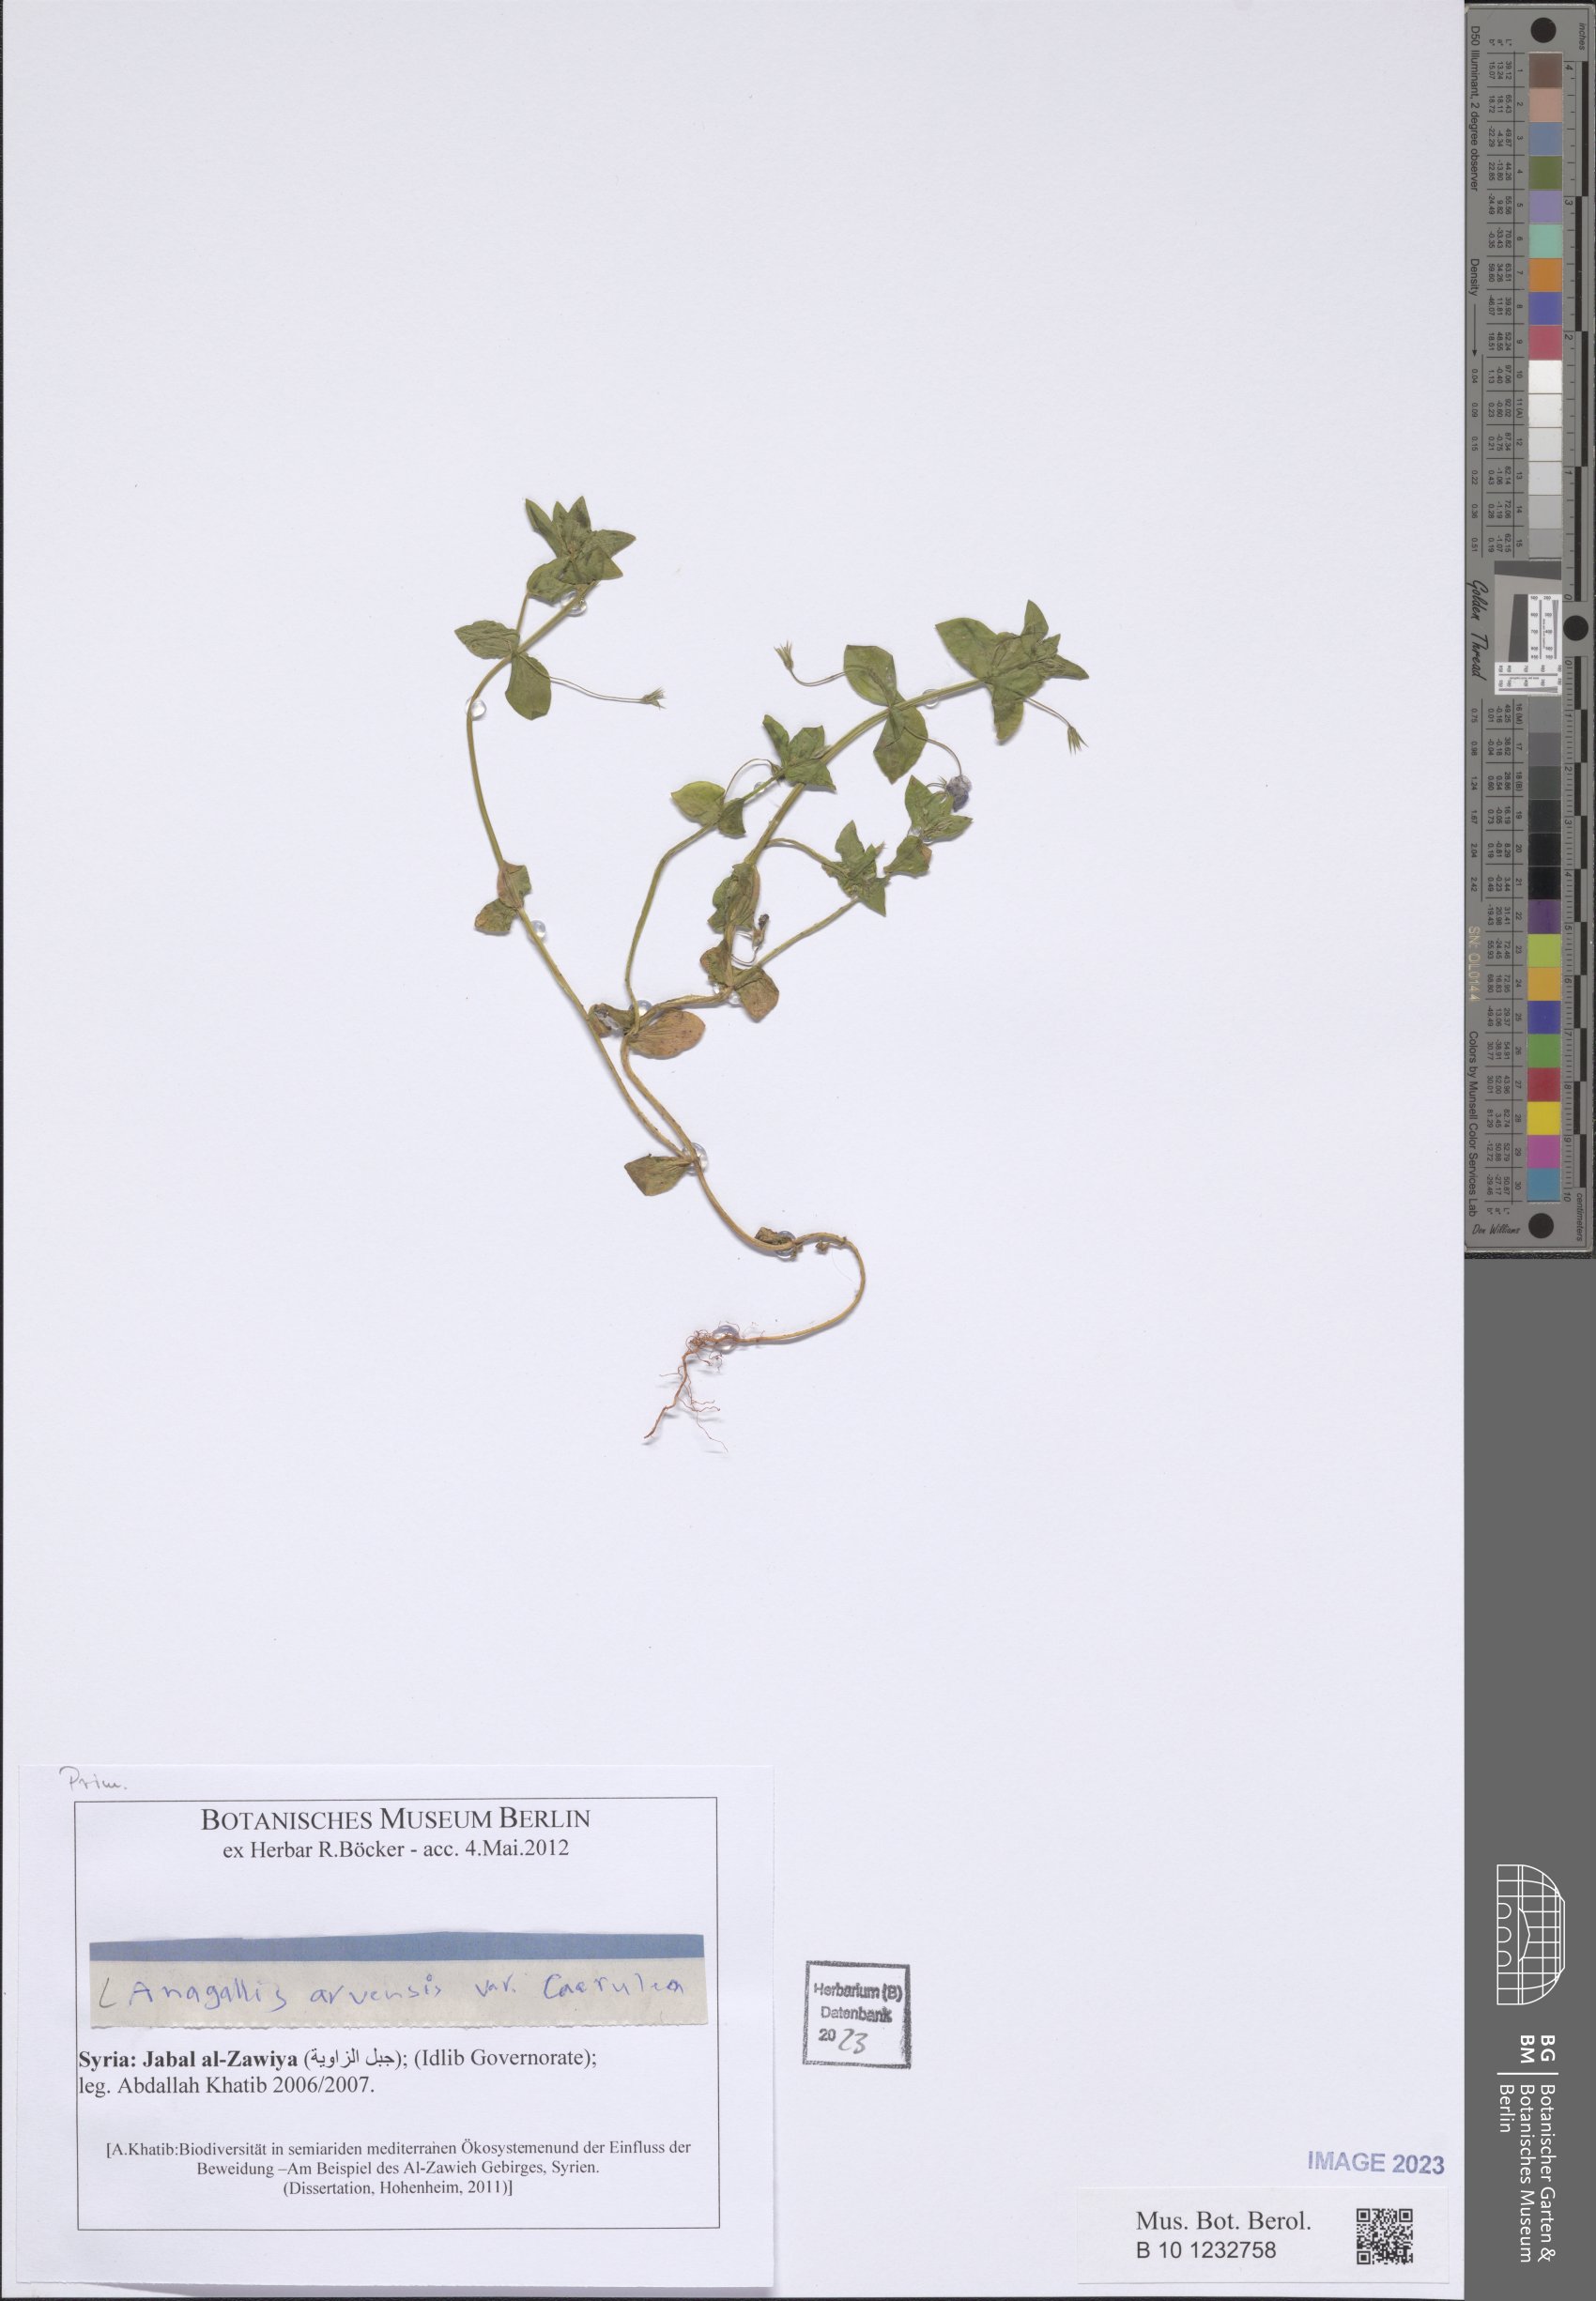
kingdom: Plantae
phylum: Tracheophyta
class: Magnoliopsida
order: Ericales
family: Primulaceae
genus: Lysimachia
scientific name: Lysimachia loeflingii
